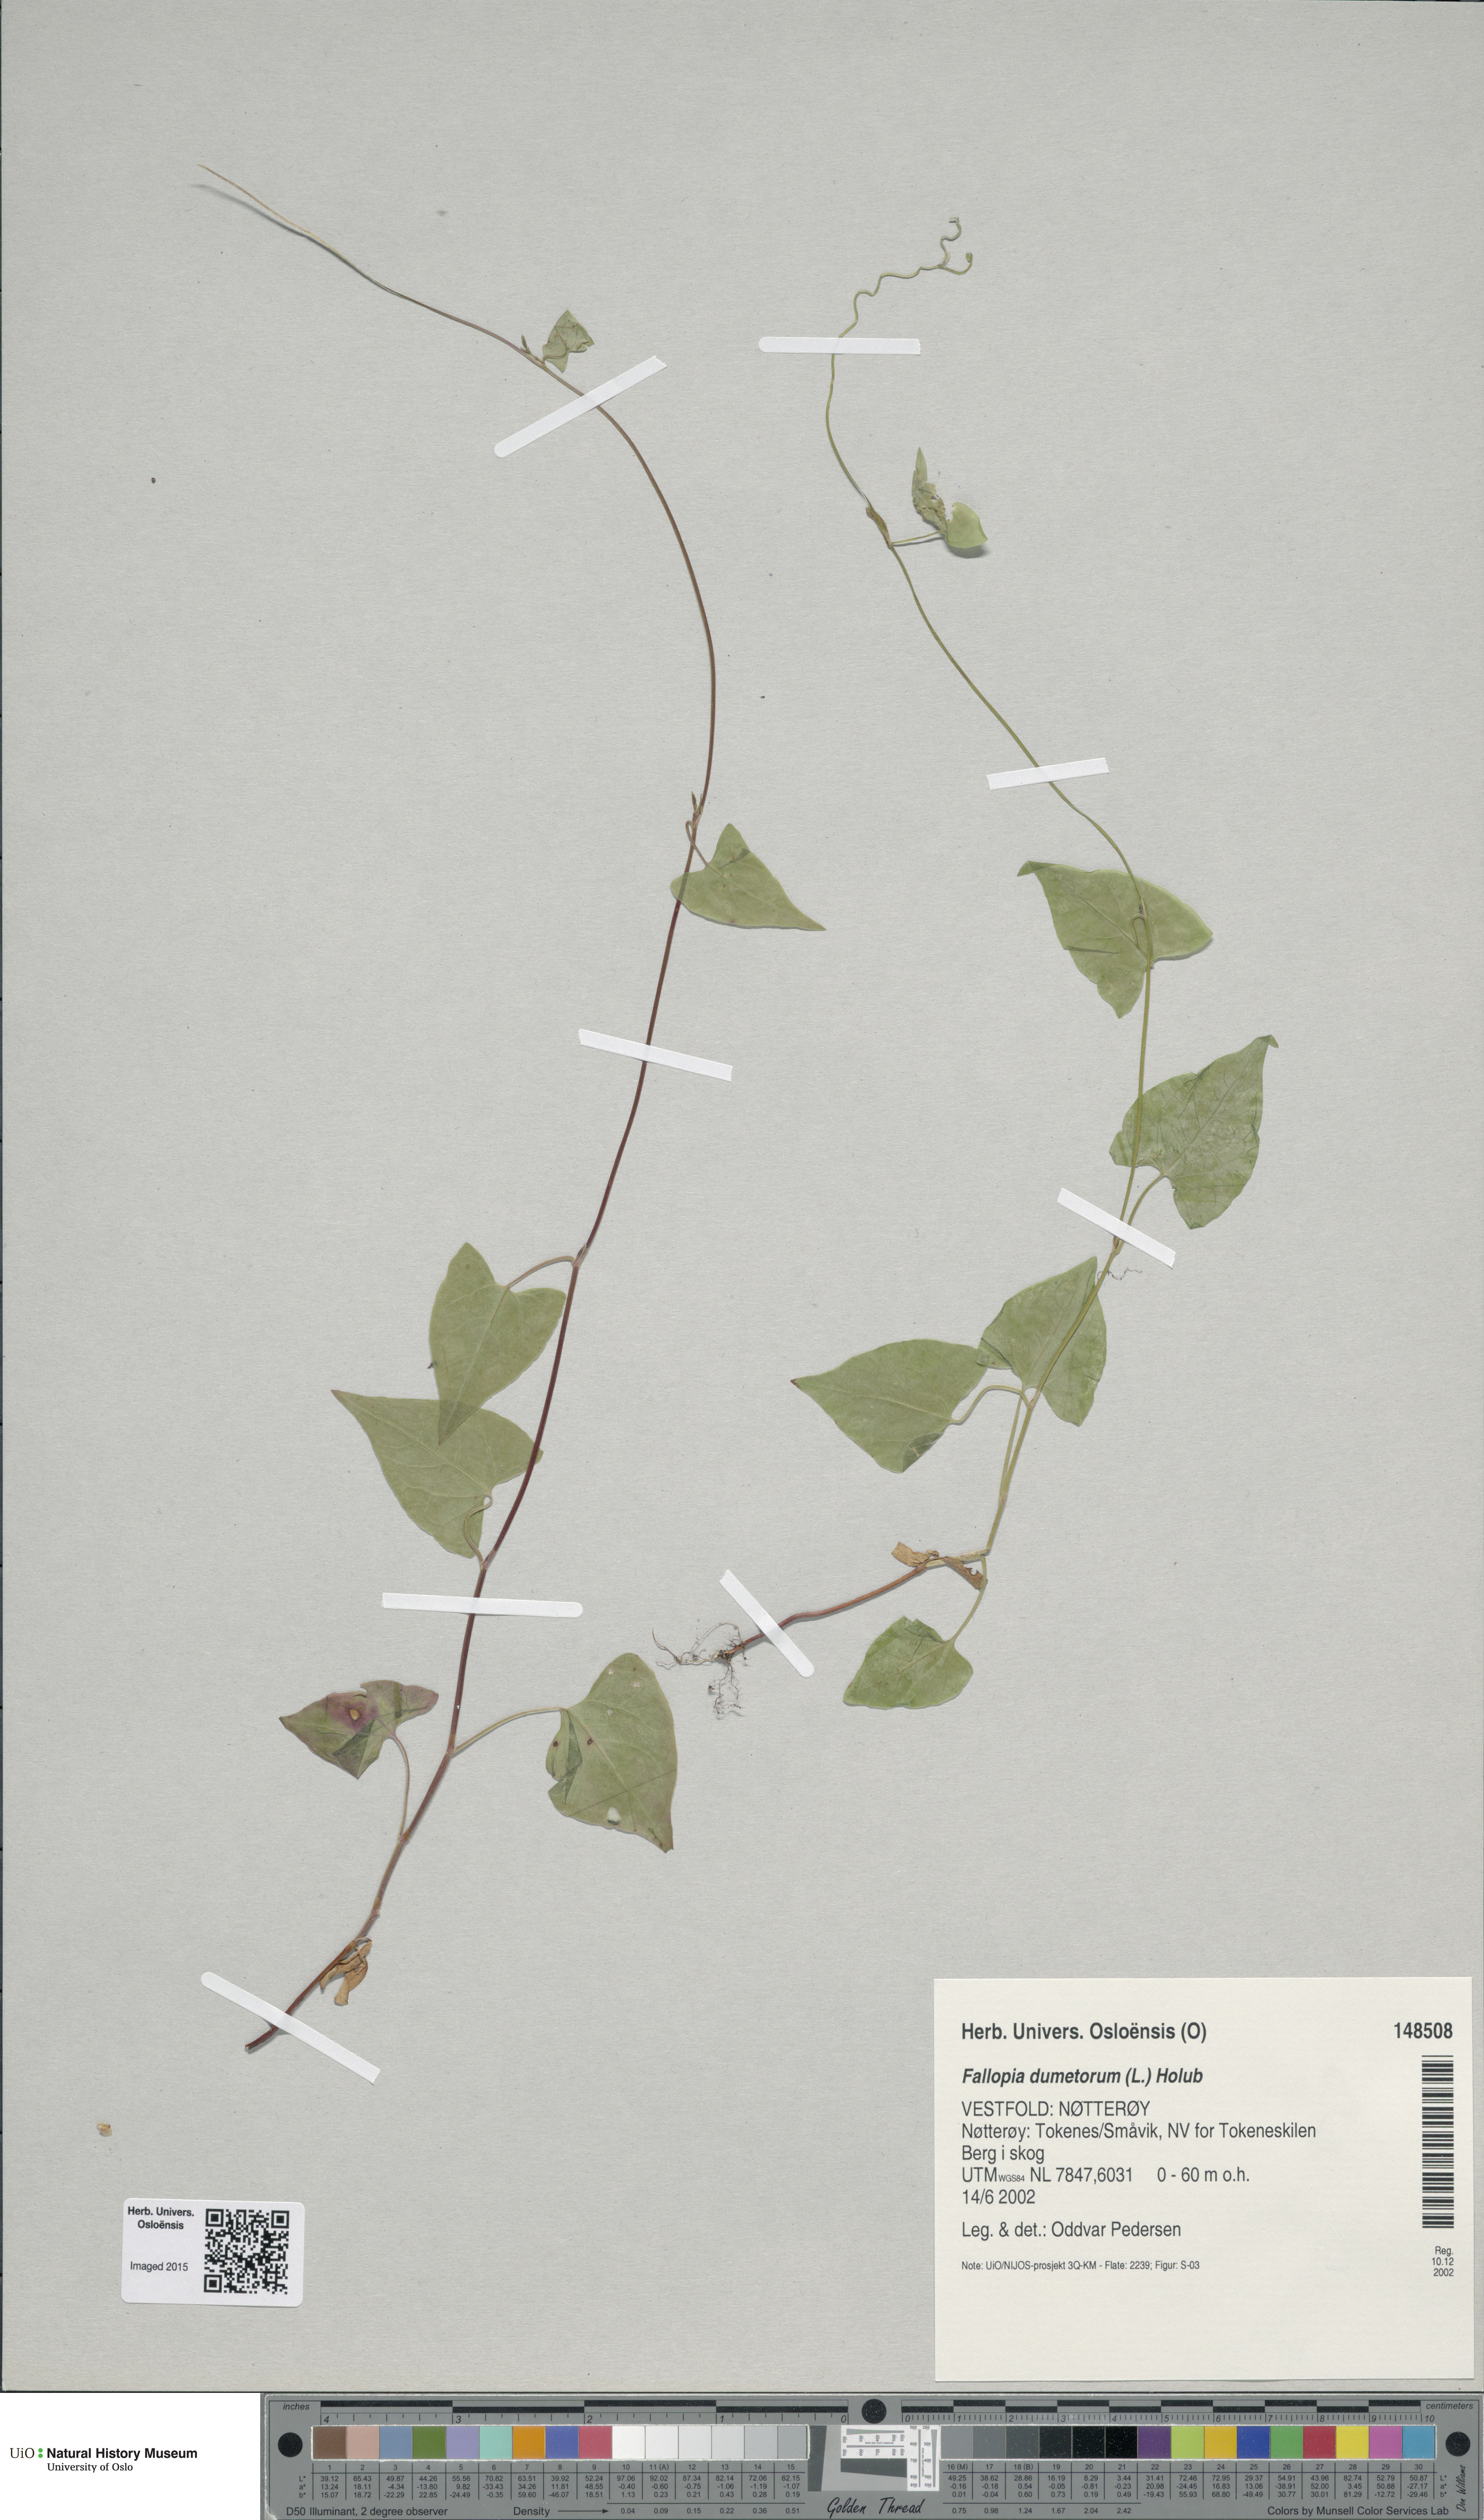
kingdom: Plantae
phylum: Tracheophyta
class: Magnoliopsida
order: Caryophyllales
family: Polygonaceae
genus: Fallopia
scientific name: Fallopia dumetorum
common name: Copse-bindweed
